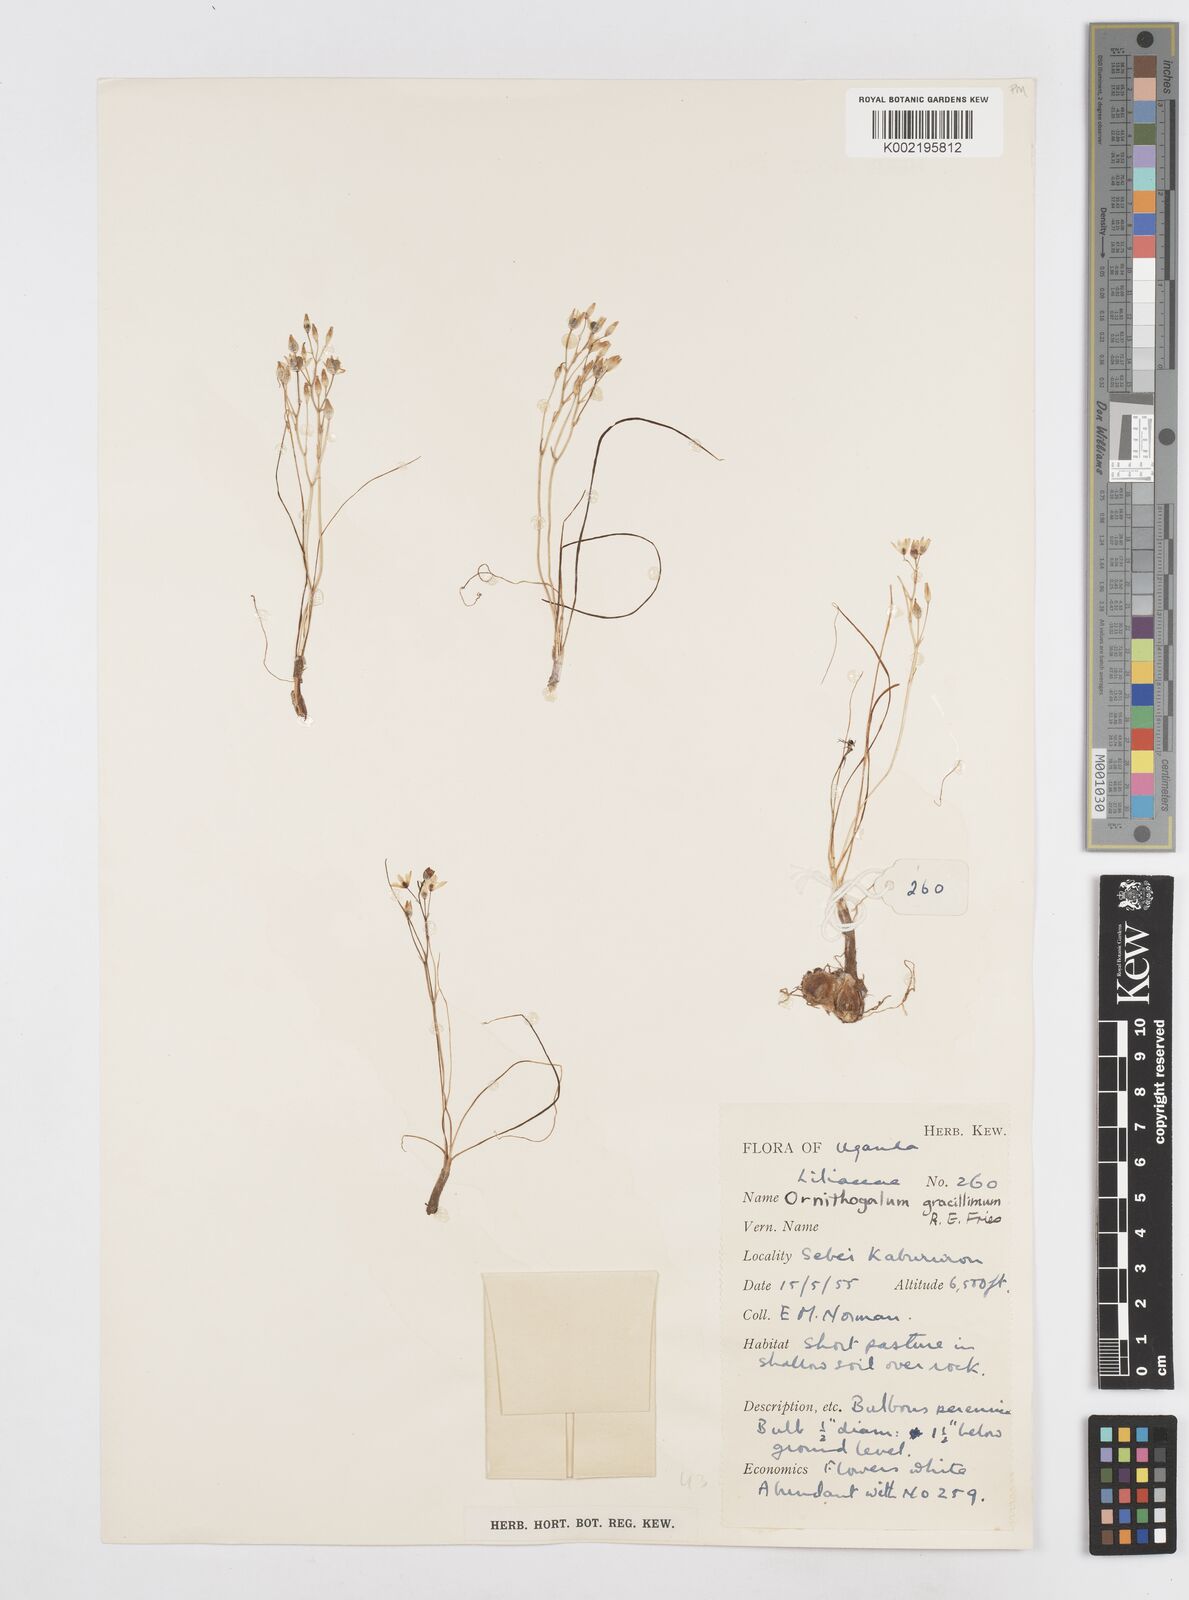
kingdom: Plantae
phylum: Tracheophyta
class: Liliopsida
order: Asparagales
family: Asparagaceae
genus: Ornithogalum
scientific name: Ornithogalum
